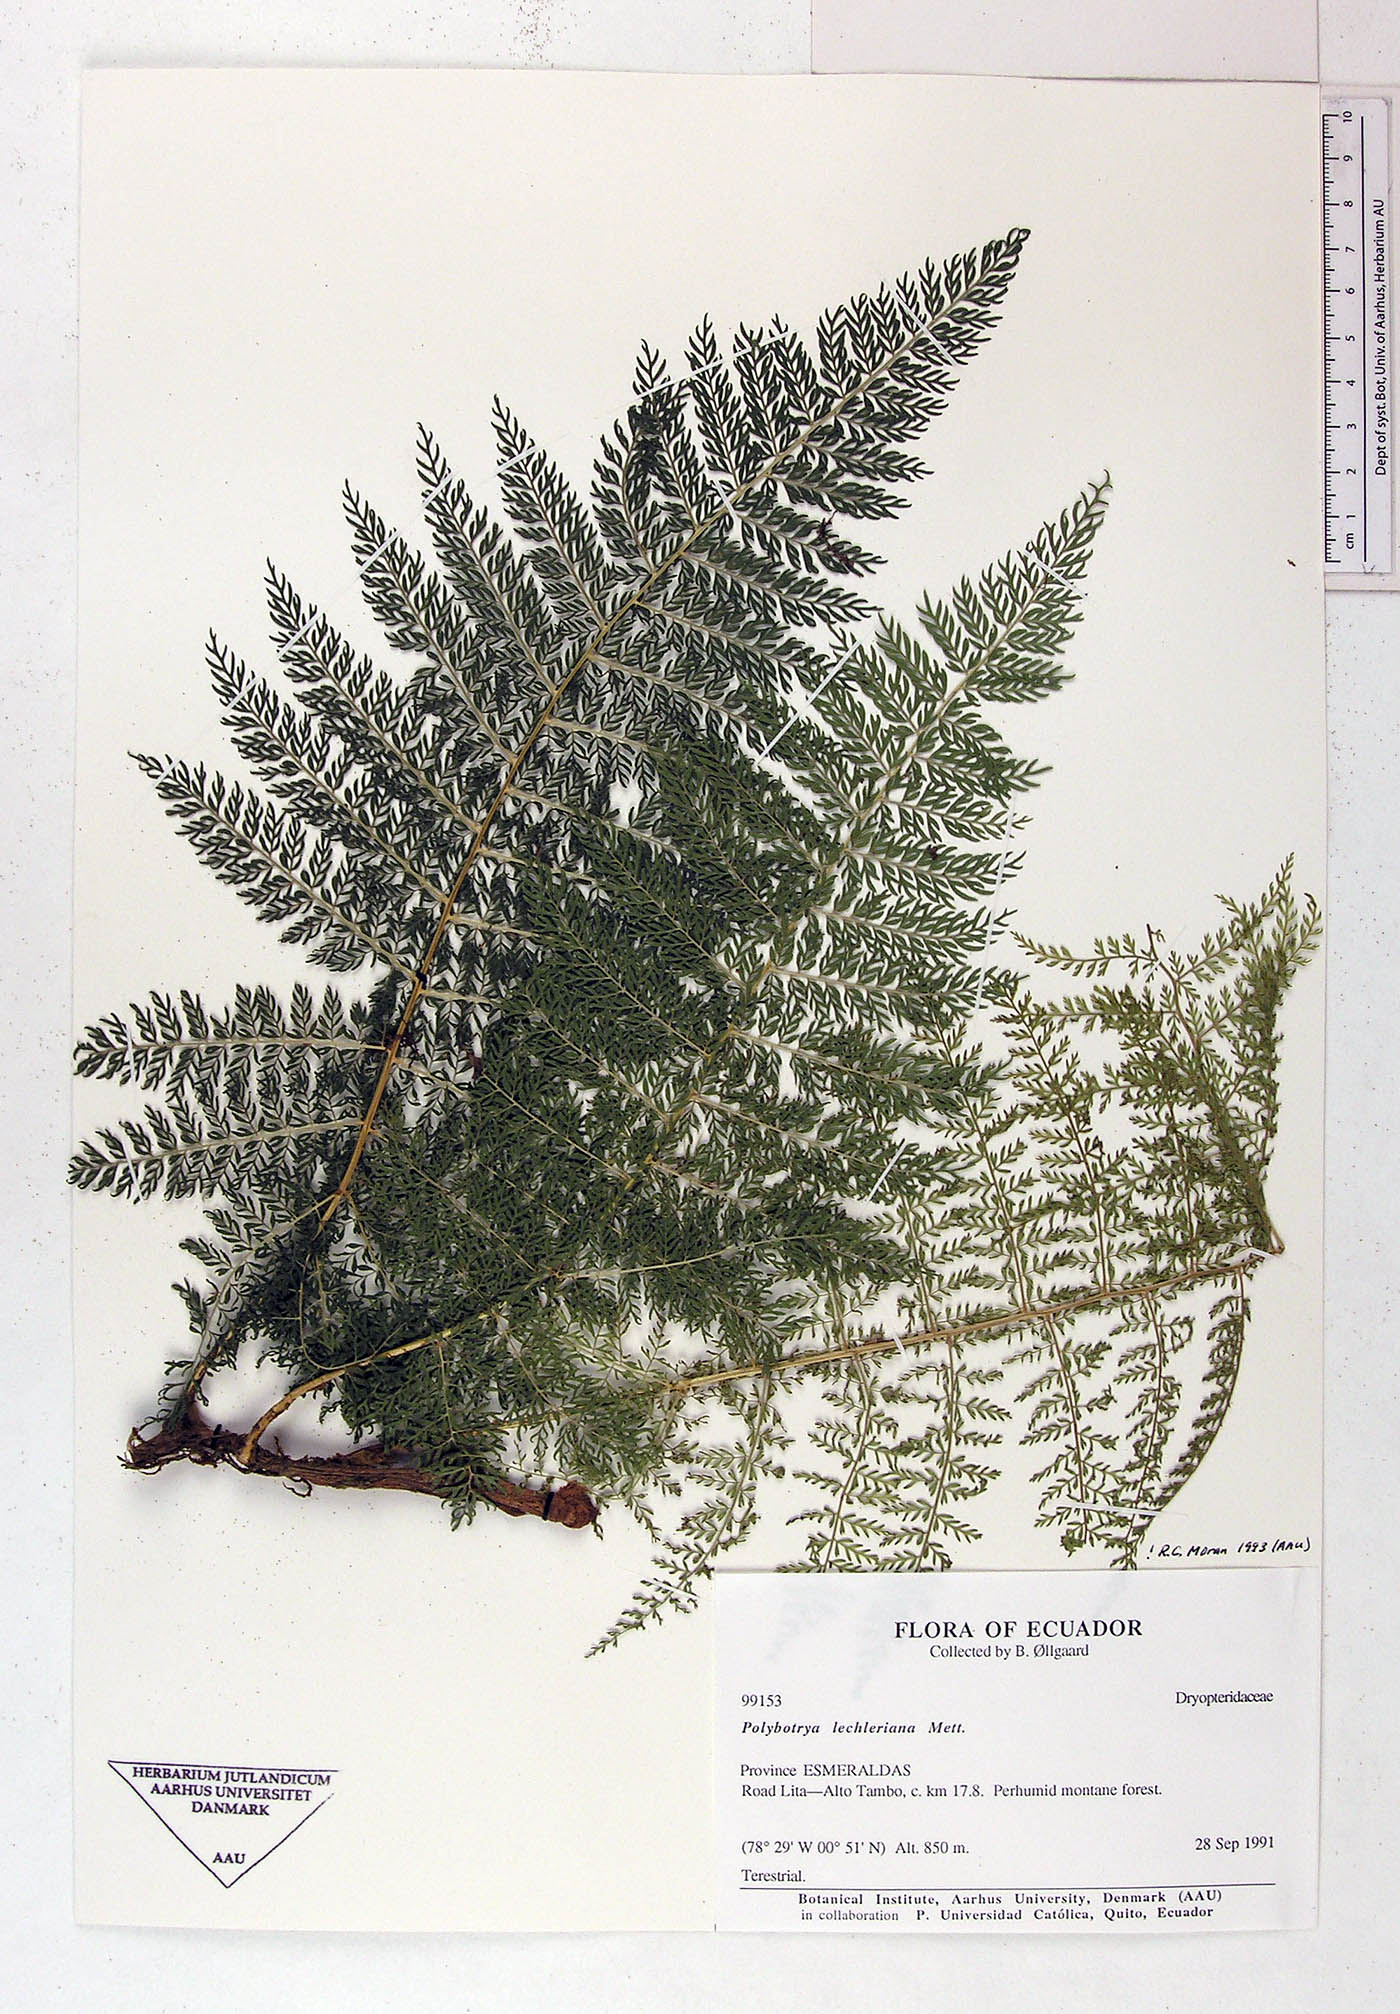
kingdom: Plantae
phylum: Tracheophyta
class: Polypodiopsida
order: Polypodiales
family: Dryopteridaceae
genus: Polybotrya
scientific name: Polybotrya lechleriana
